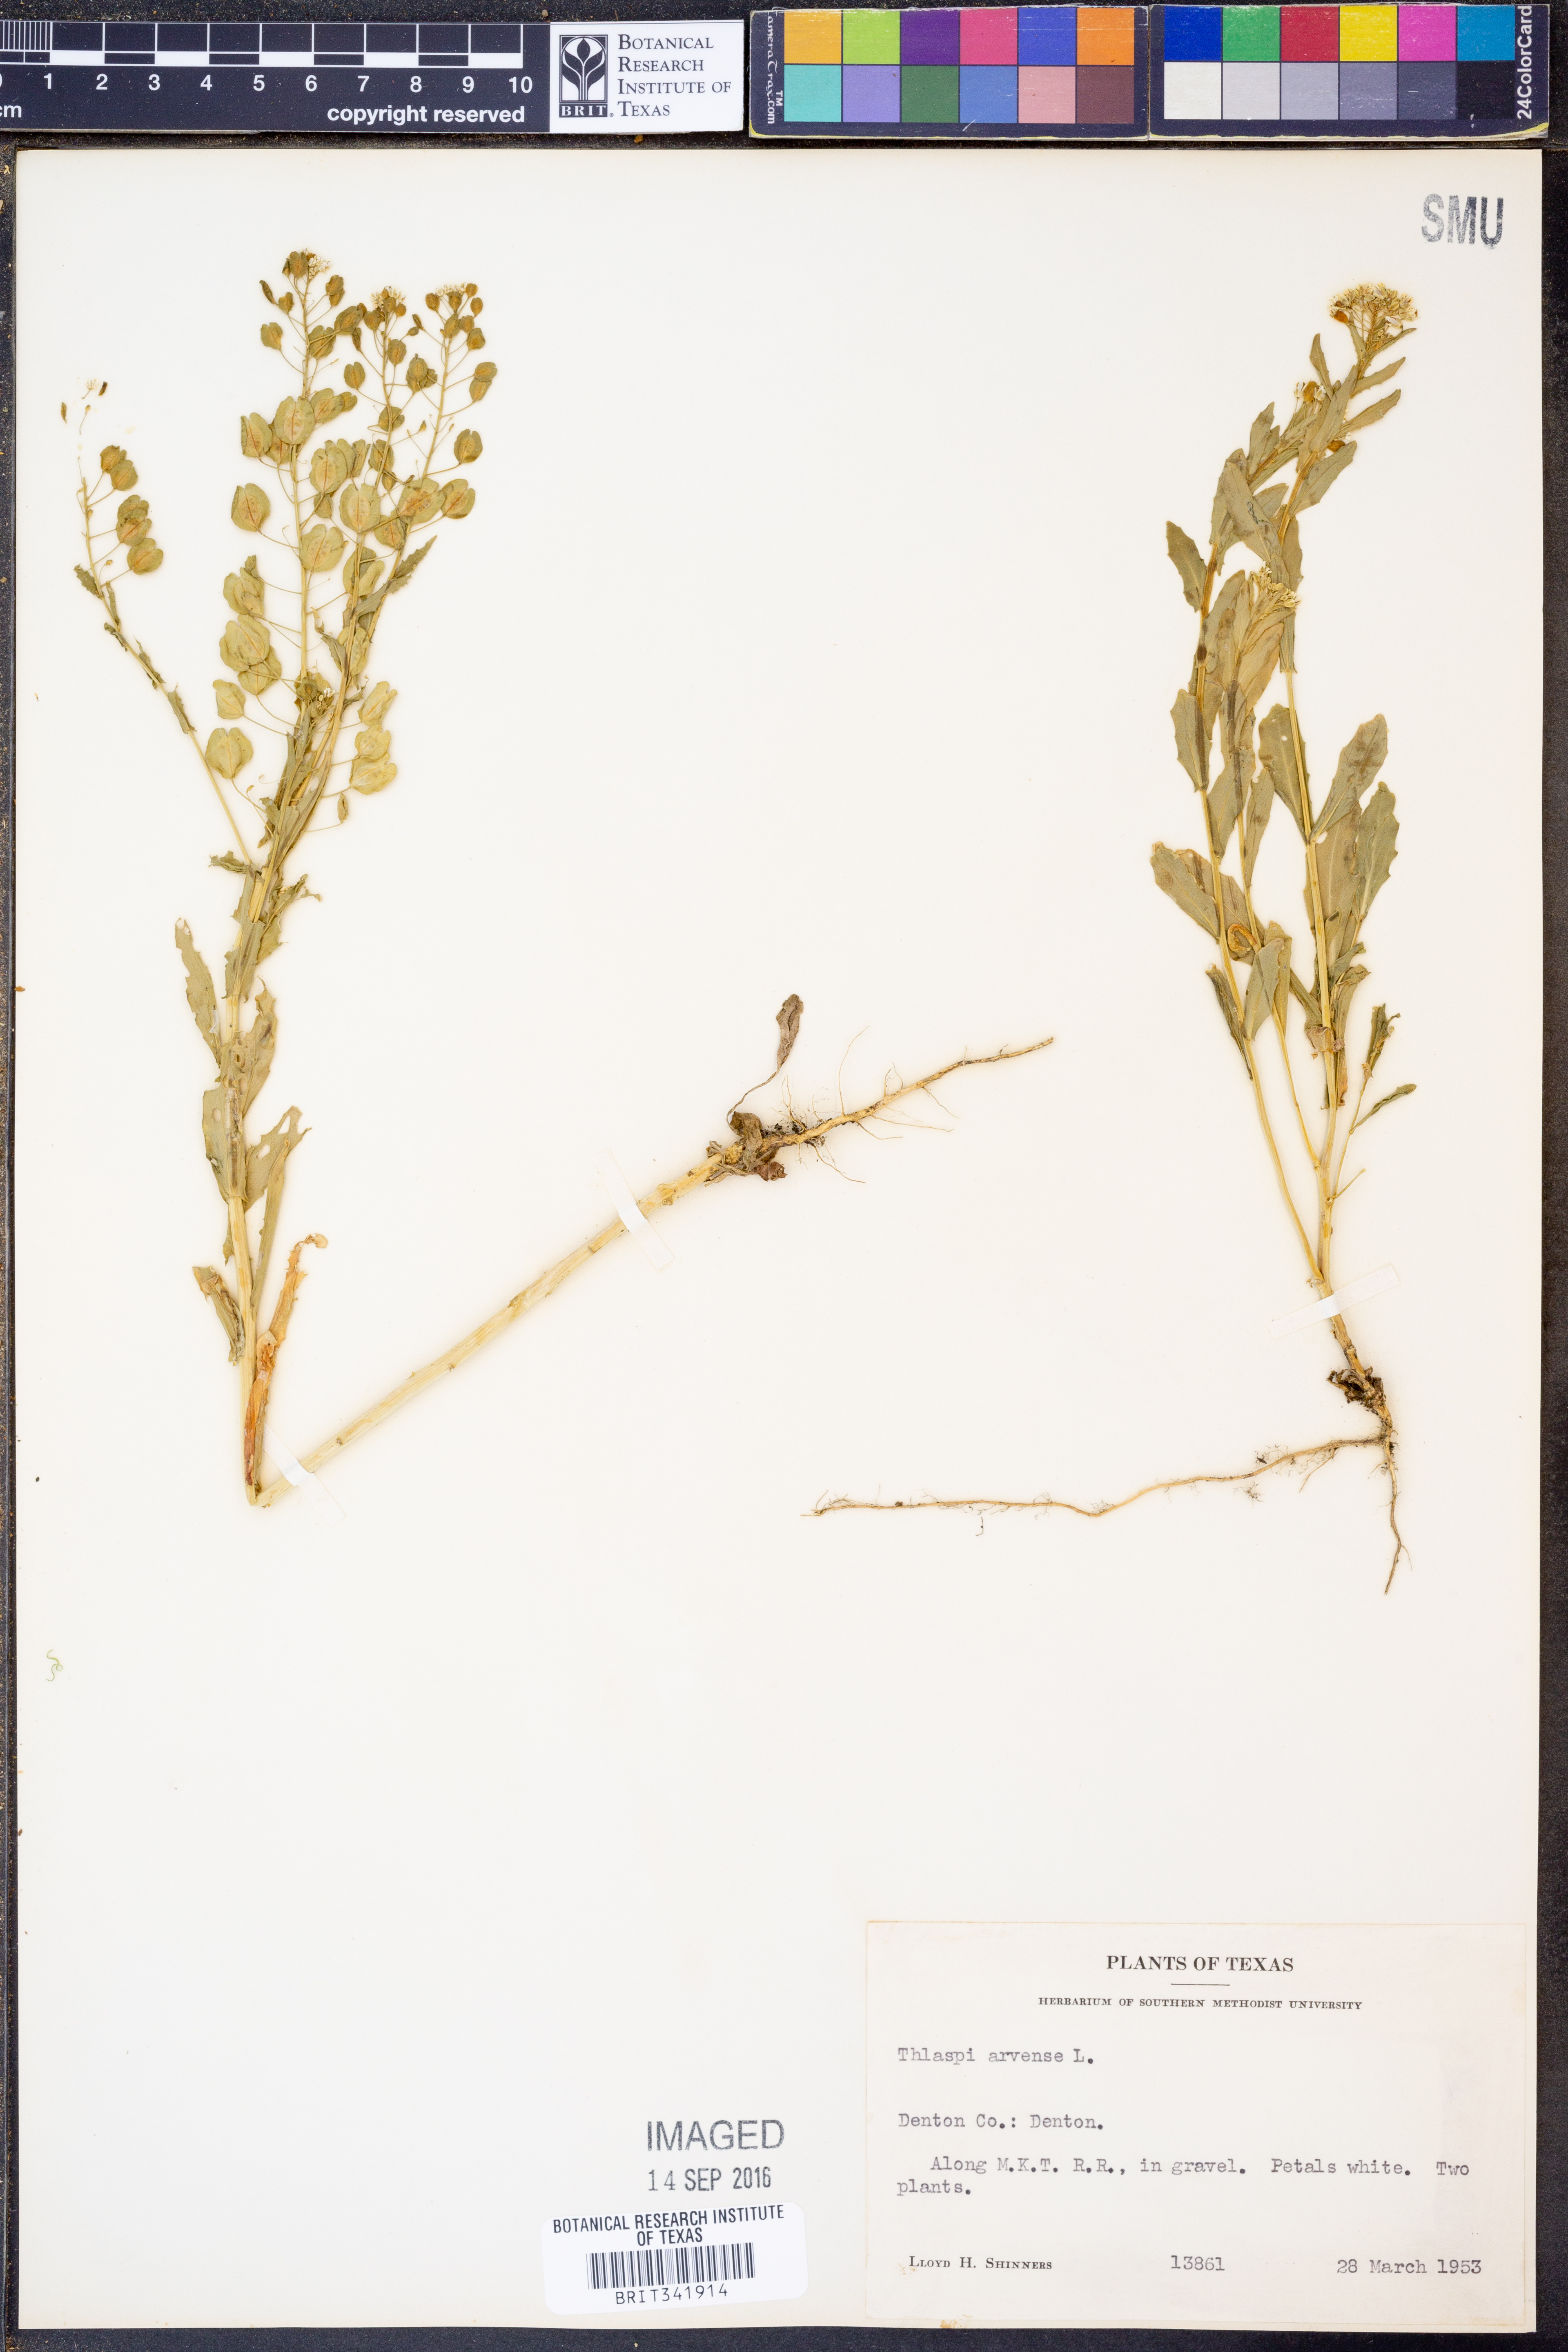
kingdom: Plantae
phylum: Tracheophyta
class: Magnoliopsida
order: Brassicales
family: Brassicaceae
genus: Thlaspi
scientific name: Thlaspi arvense
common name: Field pennycress
